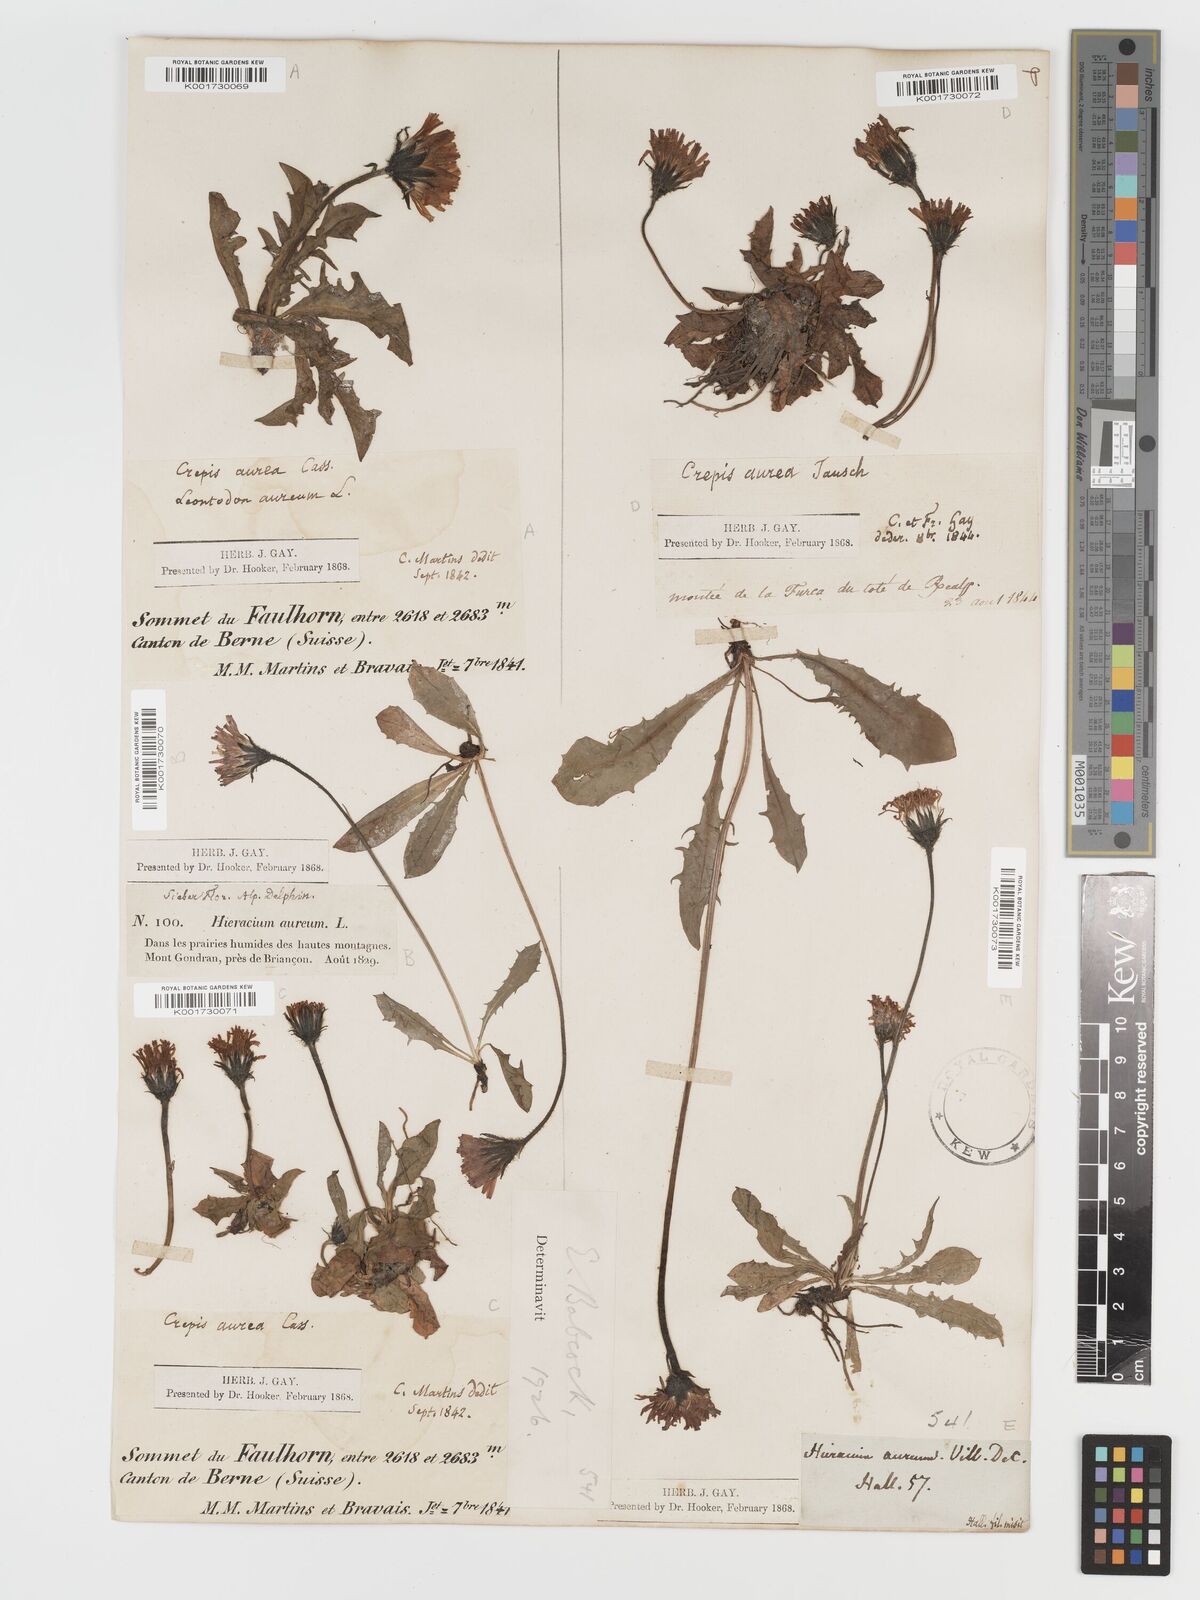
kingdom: Plantae
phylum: Tracheophyta
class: Magnoliopsida
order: Asterales
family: Asteraceae
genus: Crepis
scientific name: Crepis aurea
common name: Golden hawk's-beard
